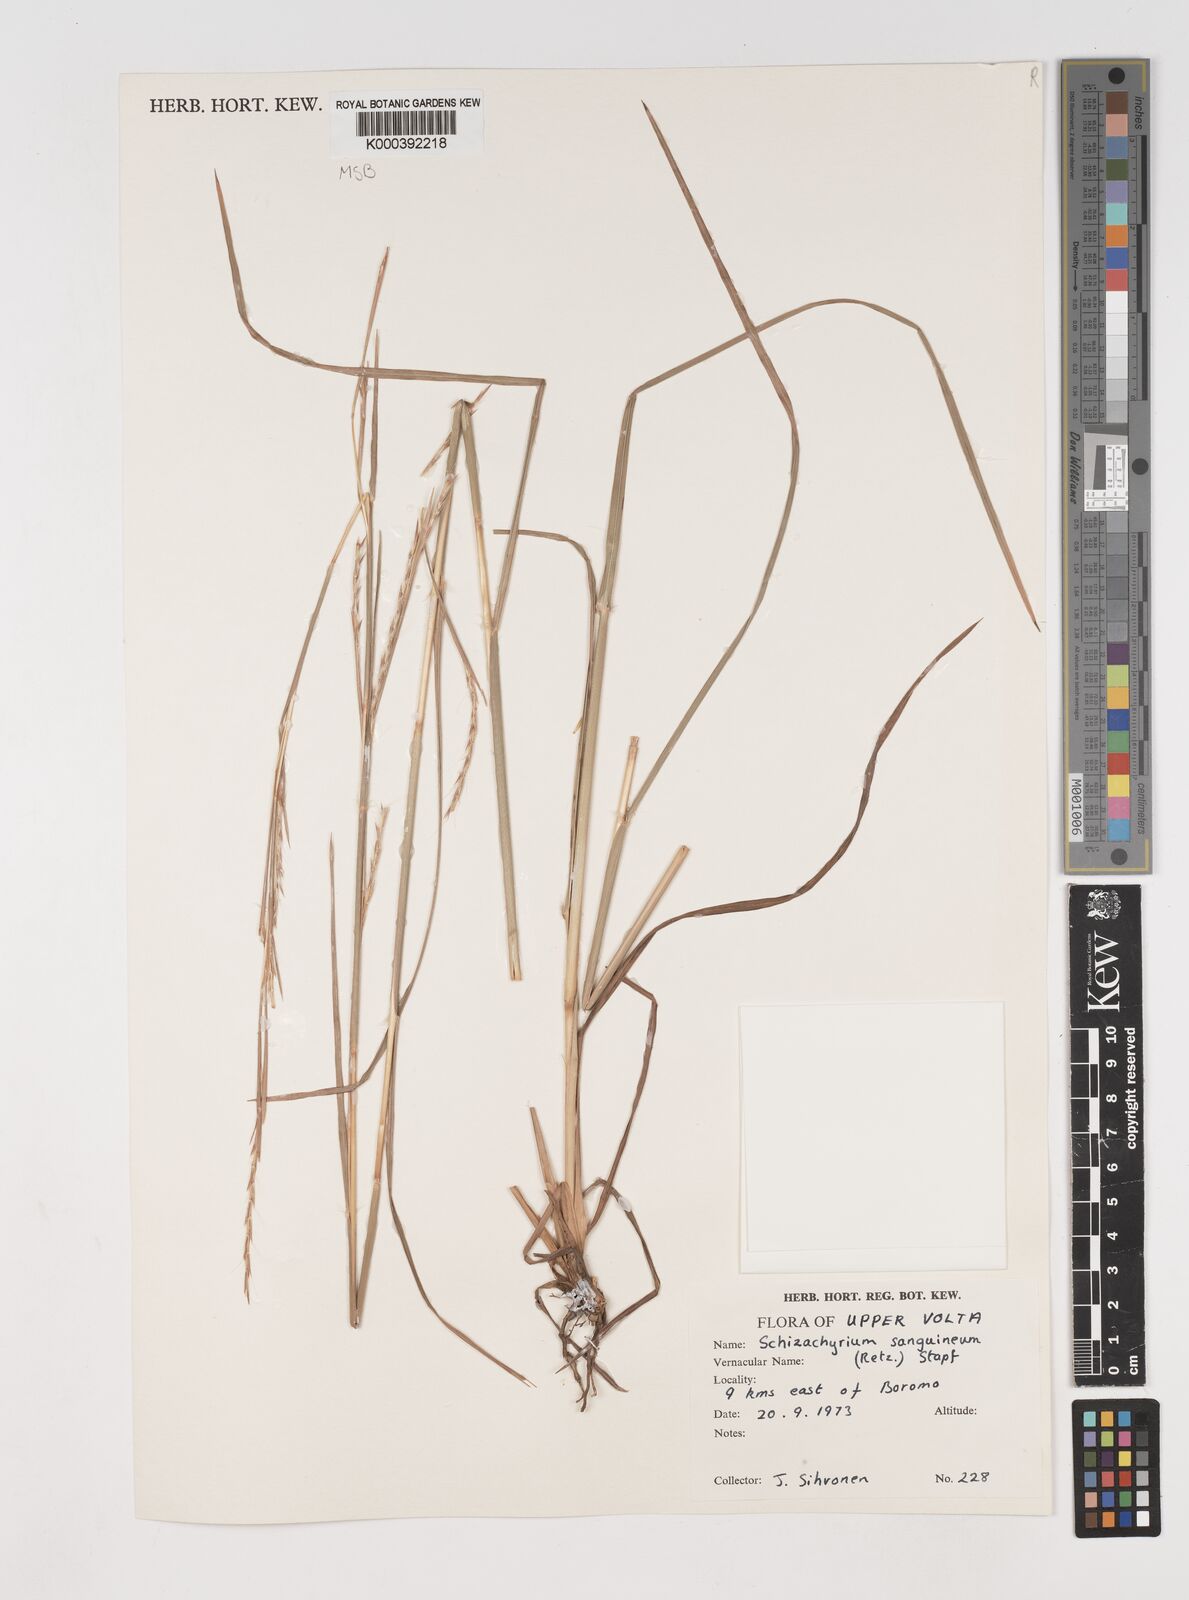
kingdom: Plantae
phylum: Tracheophyta
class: Liliopsida
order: Poales
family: Poaceae
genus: Schizachyrium
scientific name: Schizachyrium sanguineum
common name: Crimson bluestem
